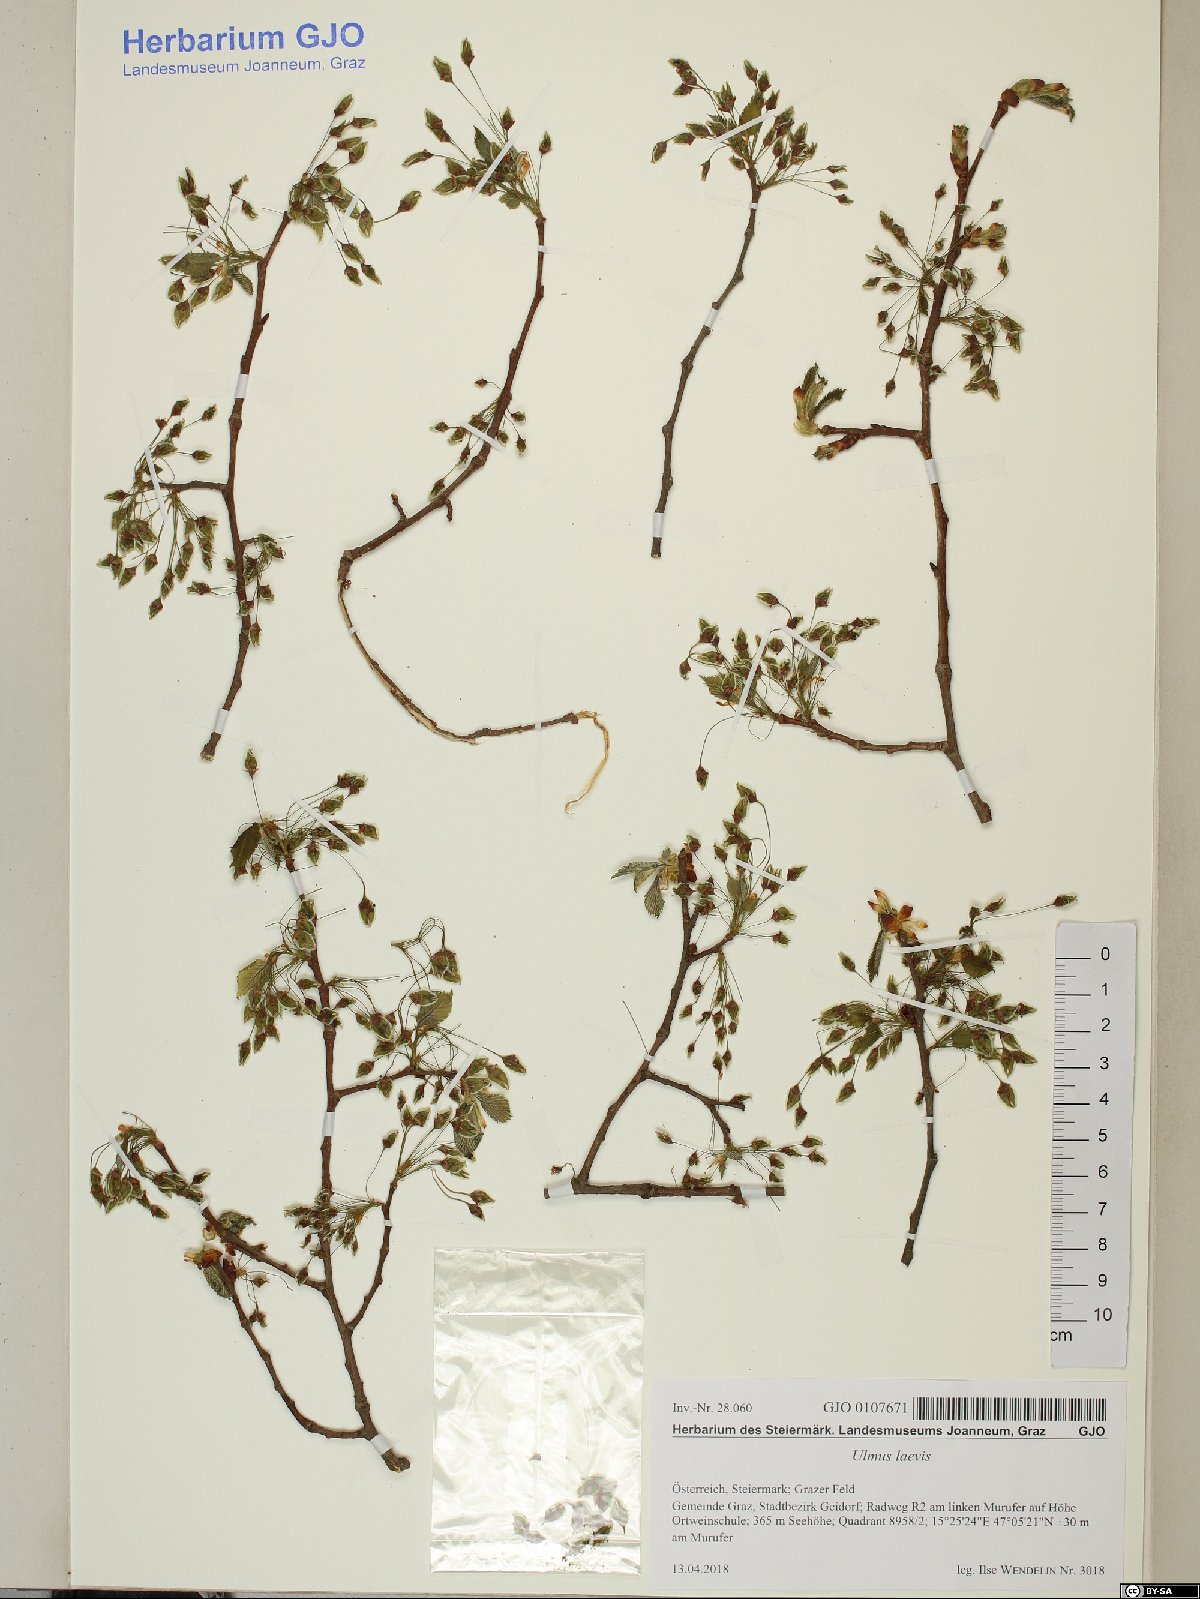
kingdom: Plantae
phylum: Tracheophyta
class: Magnoliopsida
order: Rosales
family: Ulmaceae
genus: Ulmus
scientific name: Ulmus laevis
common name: European white-elm
